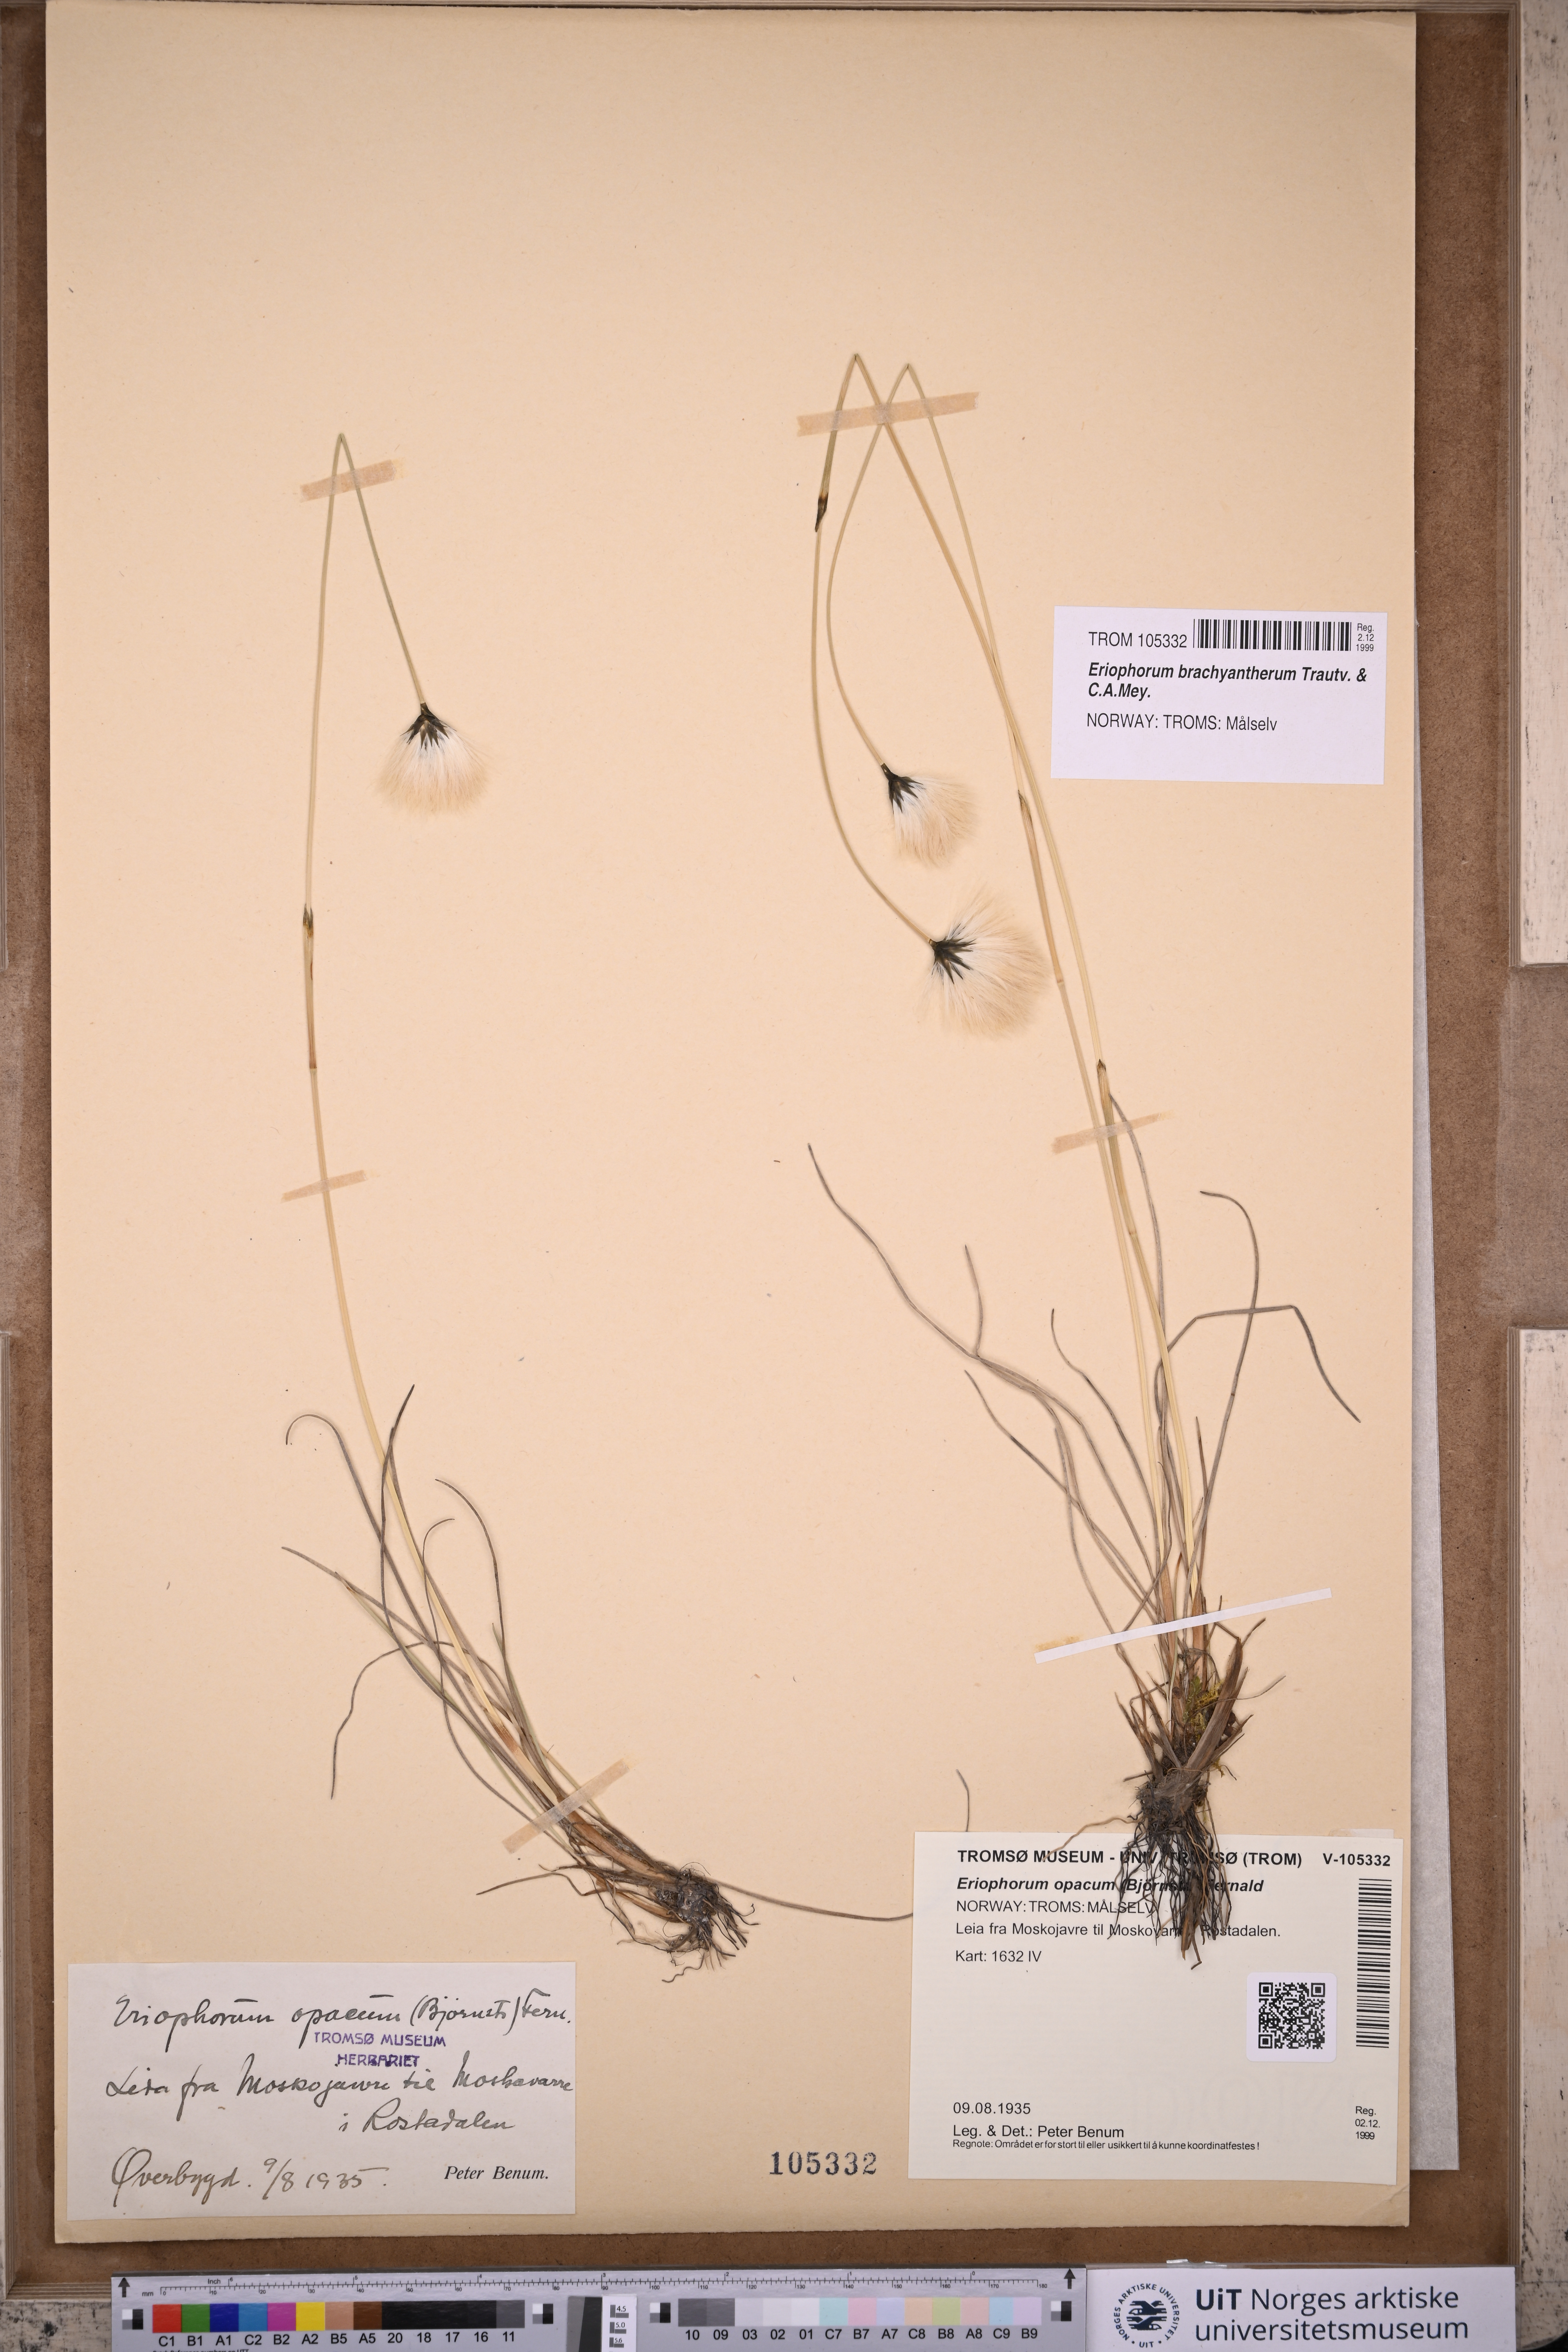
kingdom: Plantae
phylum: Tracheophyta
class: Liliopsida
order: Poales
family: Cyperaceae
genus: Eriophorum
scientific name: Eriophorum brachyantherum
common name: Closed-sheathed cottongrass
